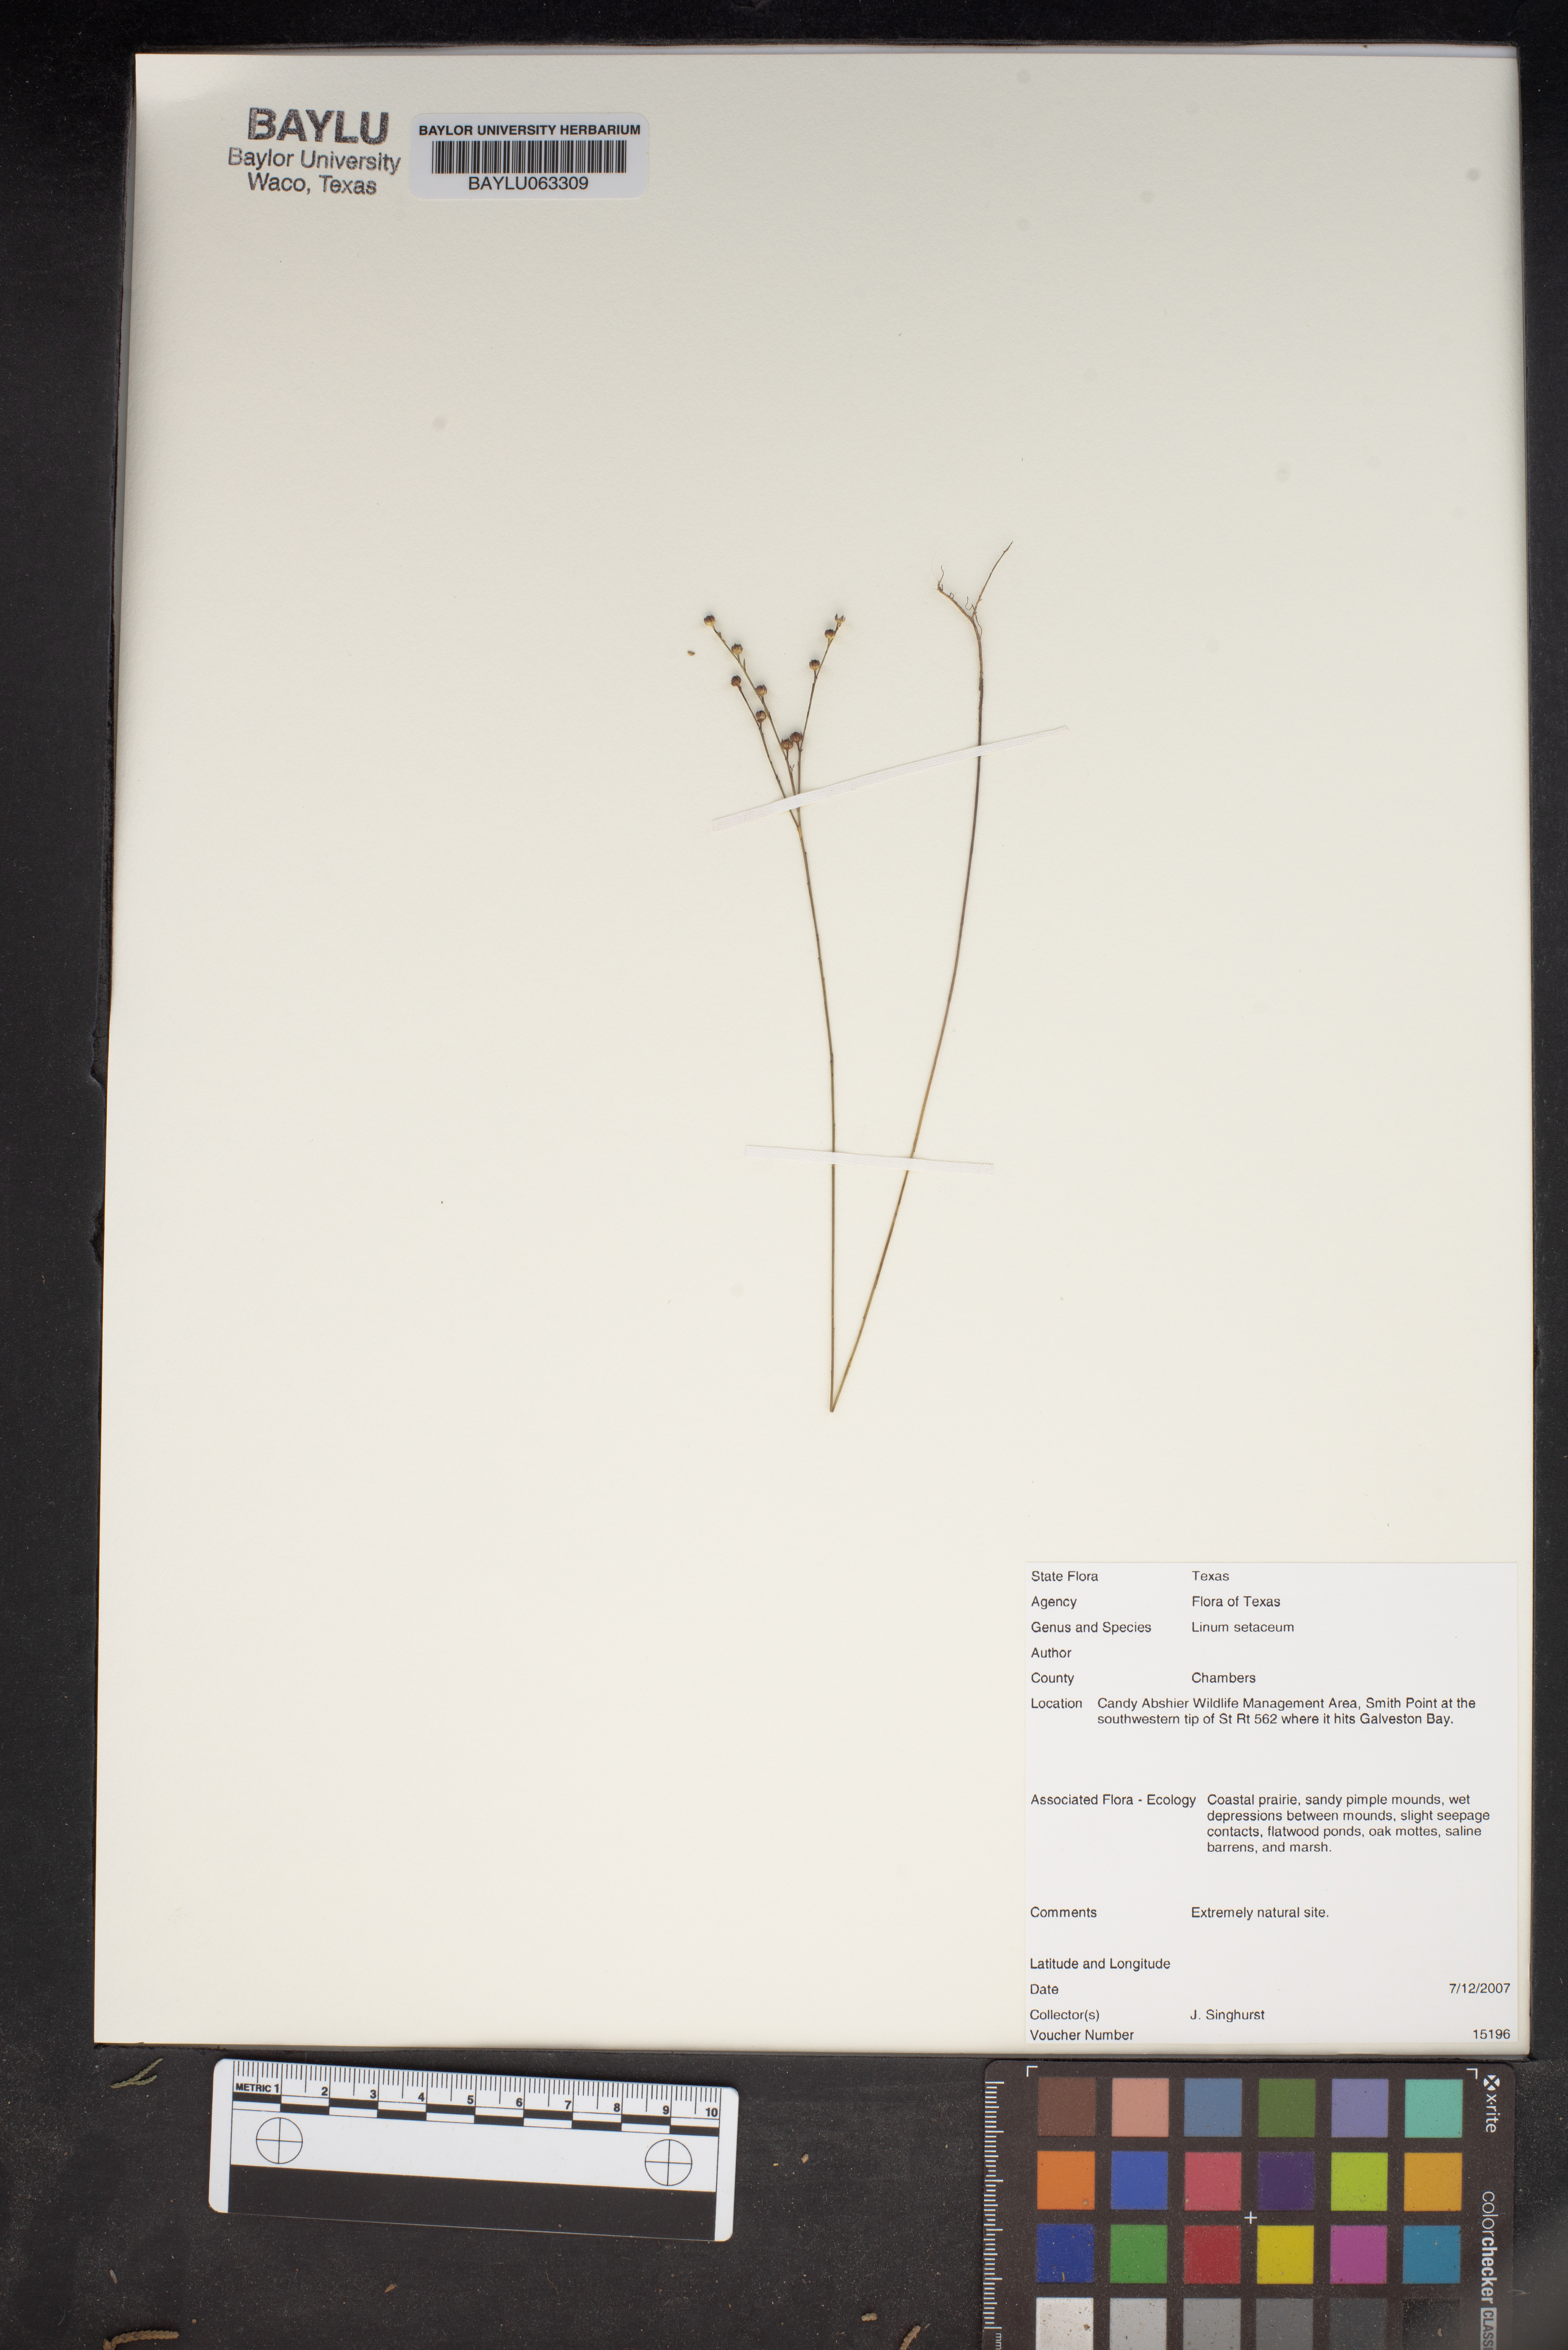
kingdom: Plantae
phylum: Tracheophyta
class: Magnoliopsida
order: Malpighiales
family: Linaceae
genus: Linum
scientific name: Linum setaceum
